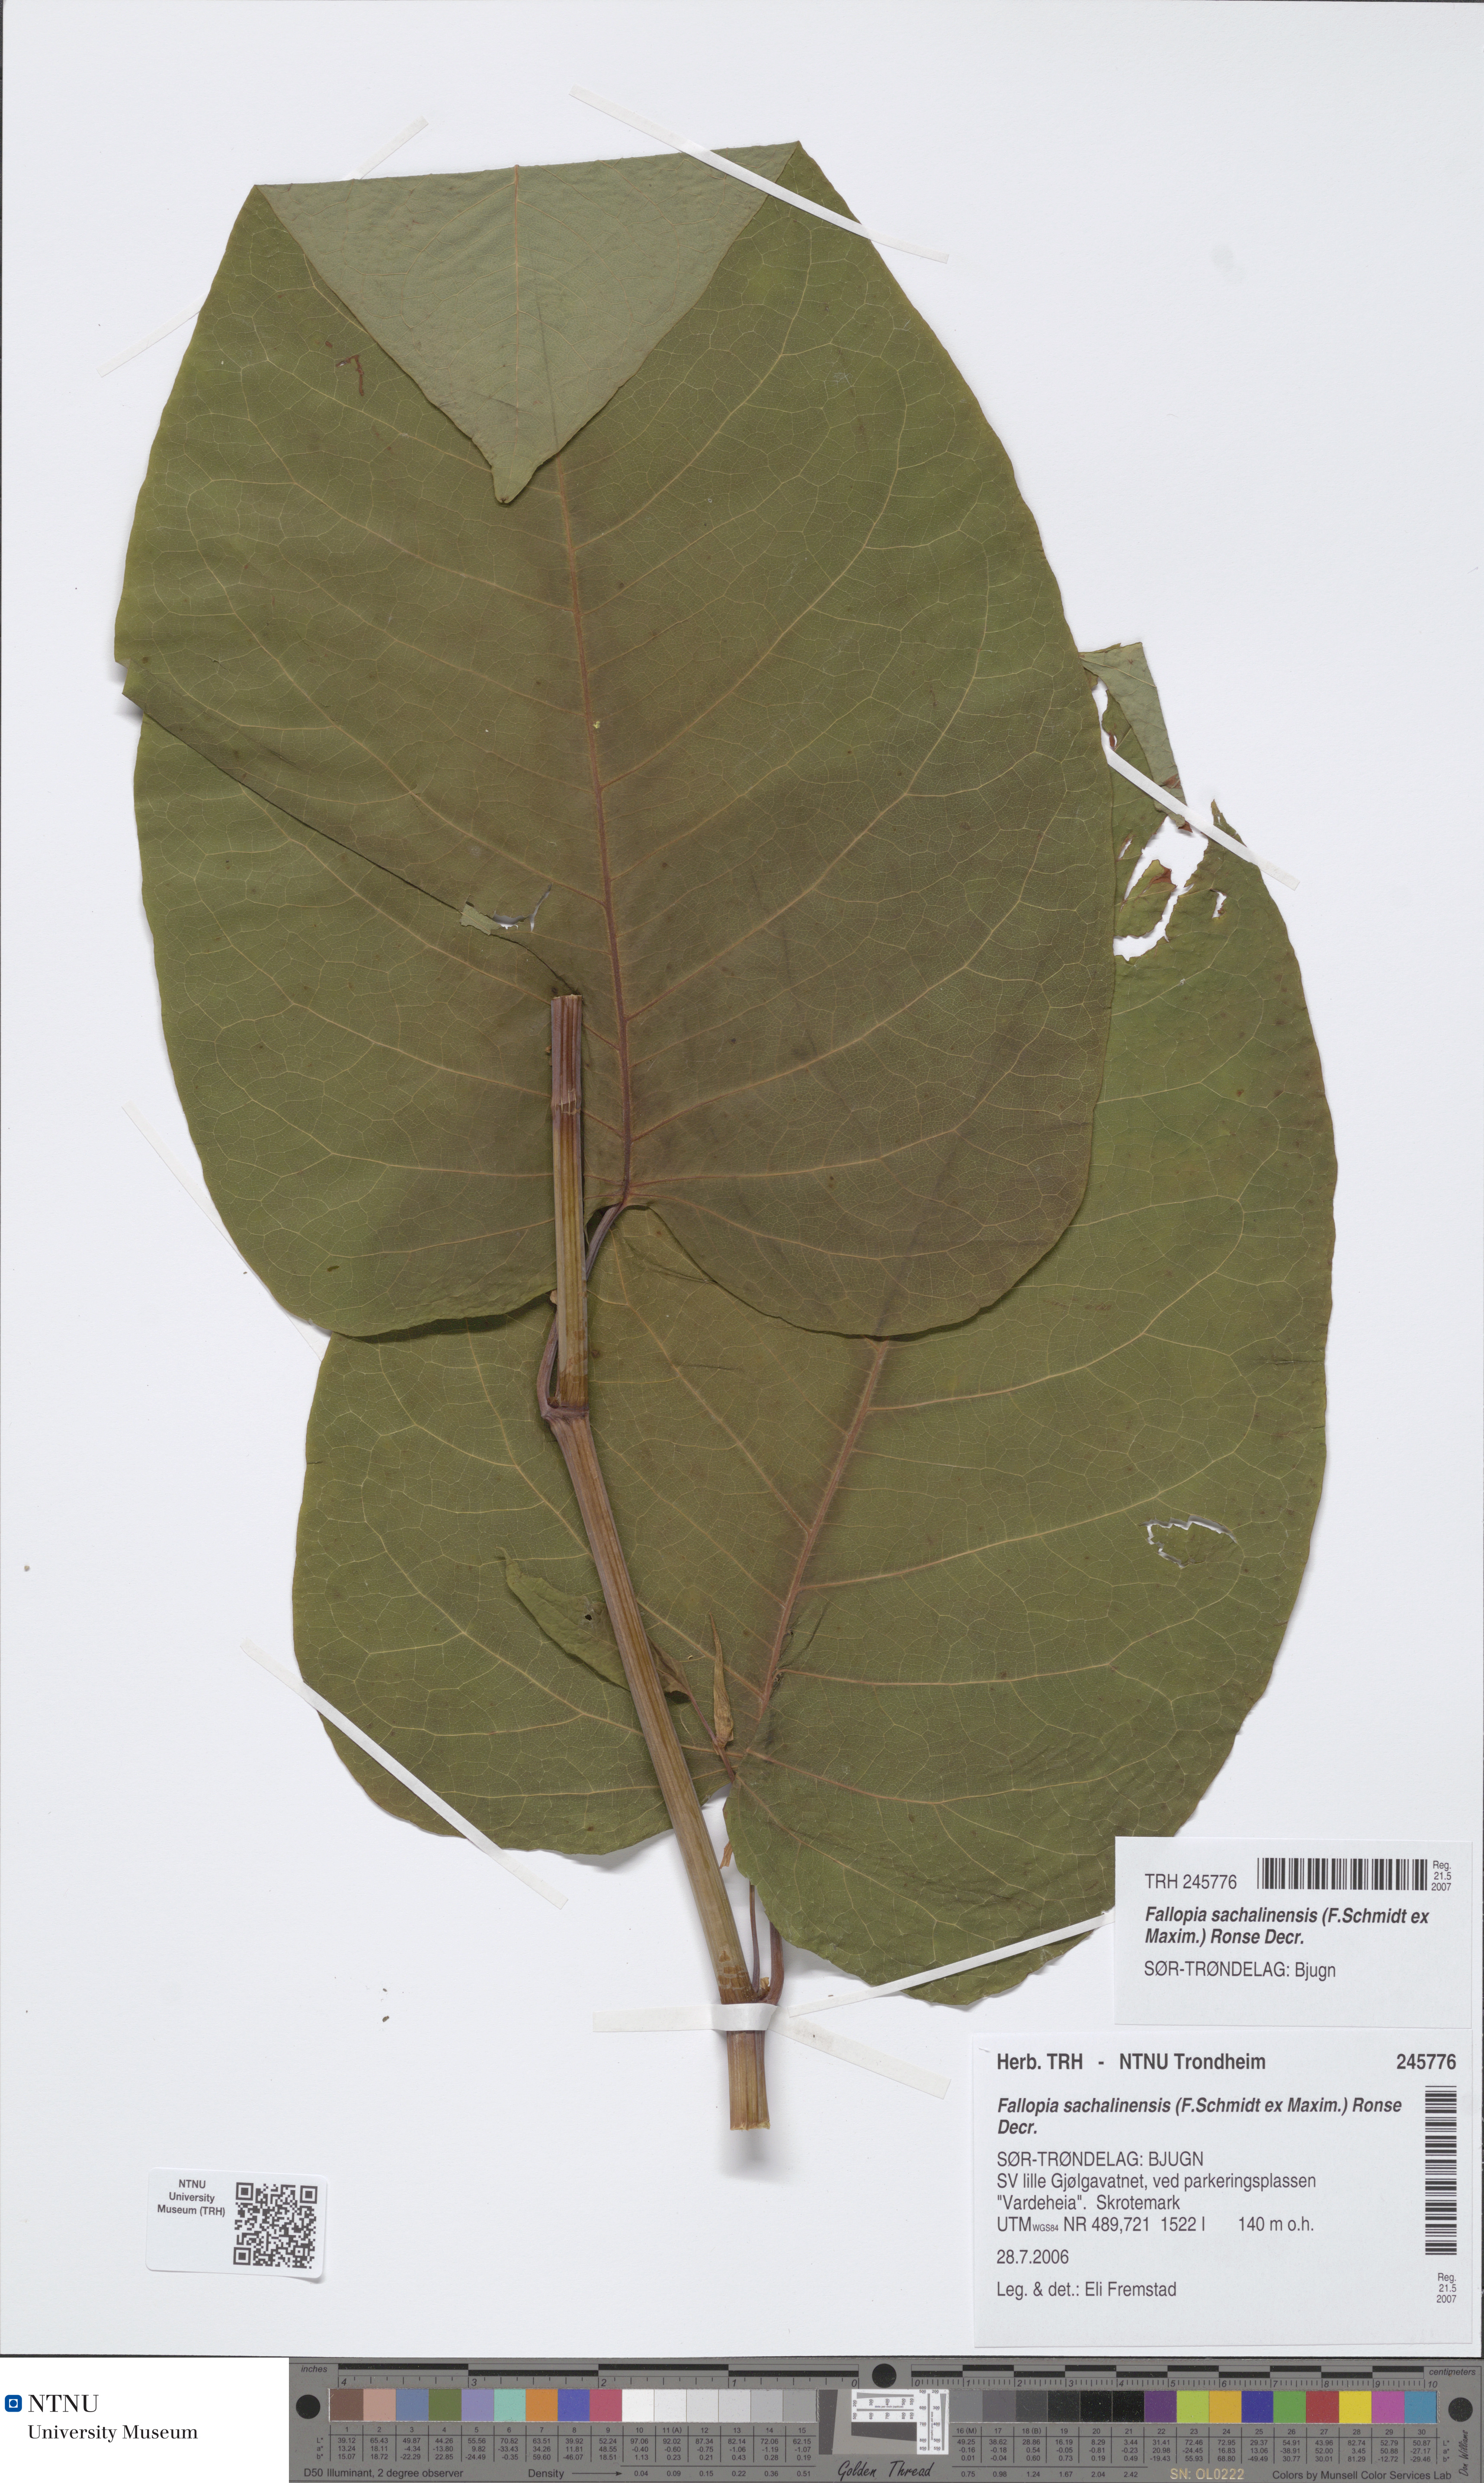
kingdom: Plantae
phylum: Tracheophyta
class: Magnoliopsida
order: Caryophyllales
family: Polygonaceae
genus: Reynoutria
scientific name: Reynoutria sachalinensis
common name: Giant knotweed
